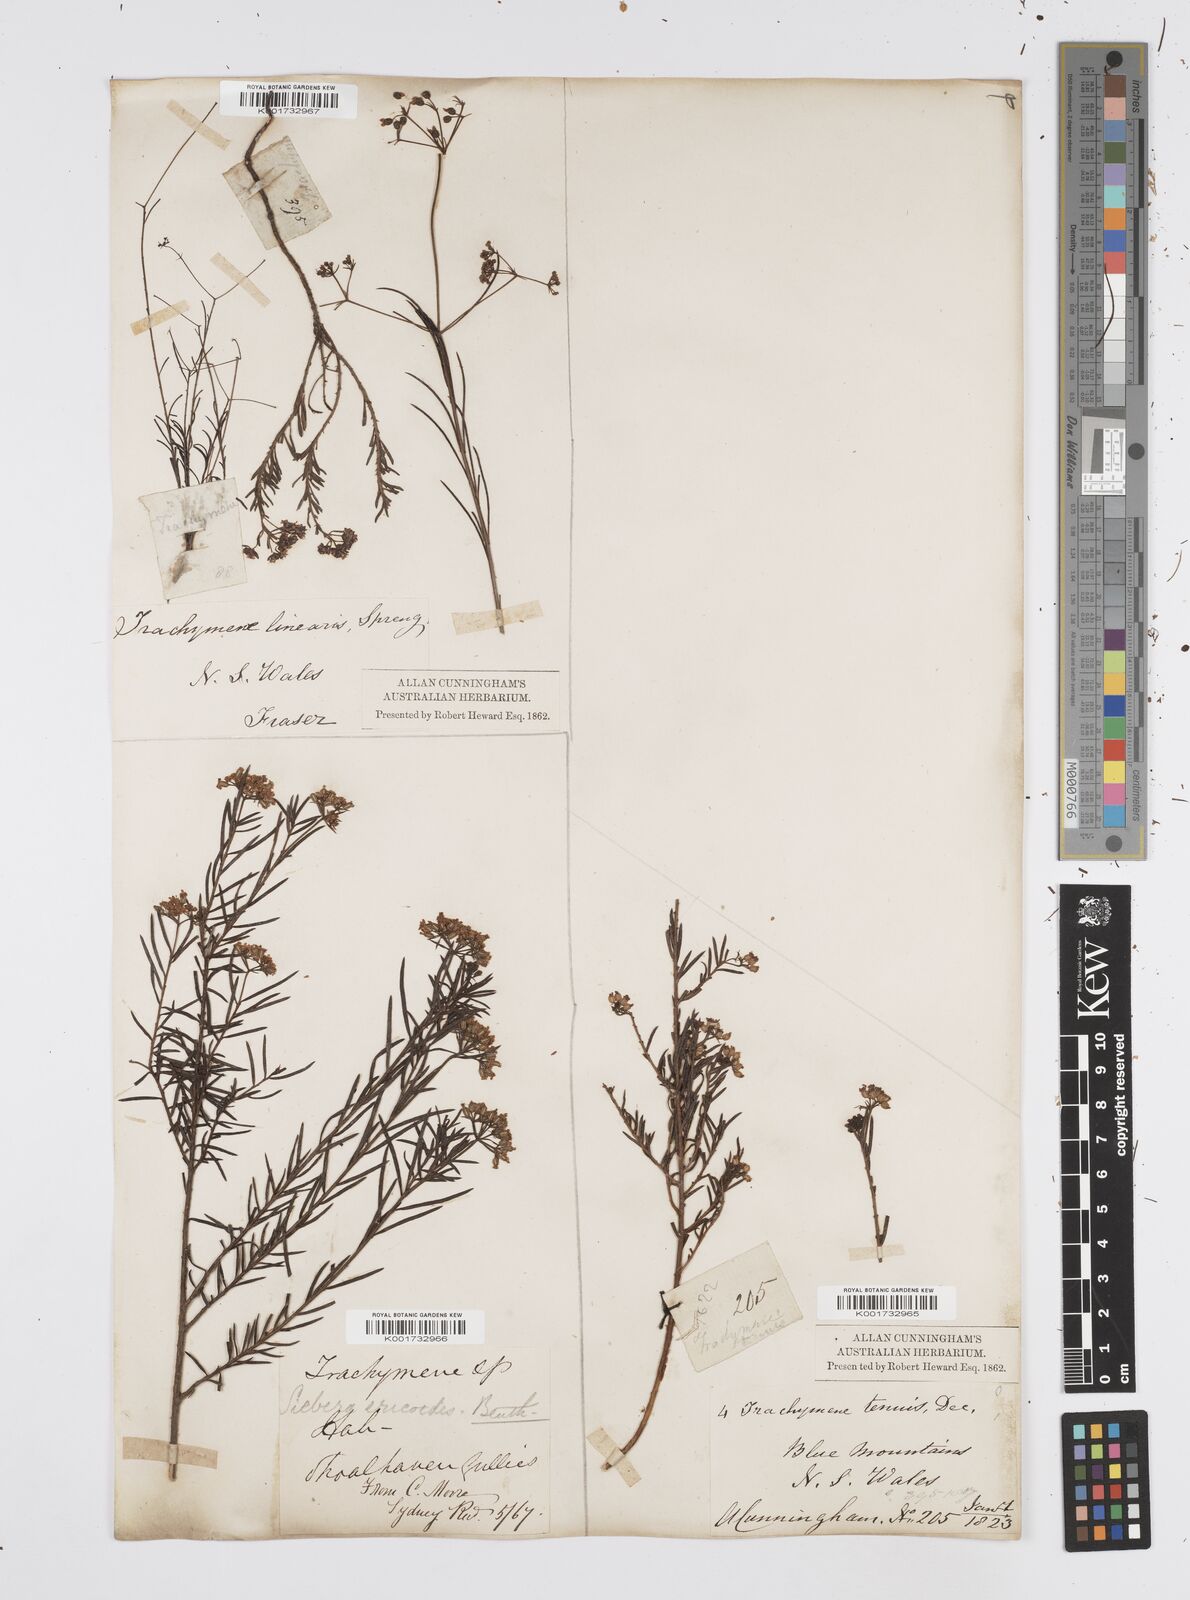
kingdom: Plantae
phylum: Tracheophyta
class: Magnoliopsida
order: Apiales
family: Apiaceae
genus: Platysace
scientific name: Platysace ericoides
